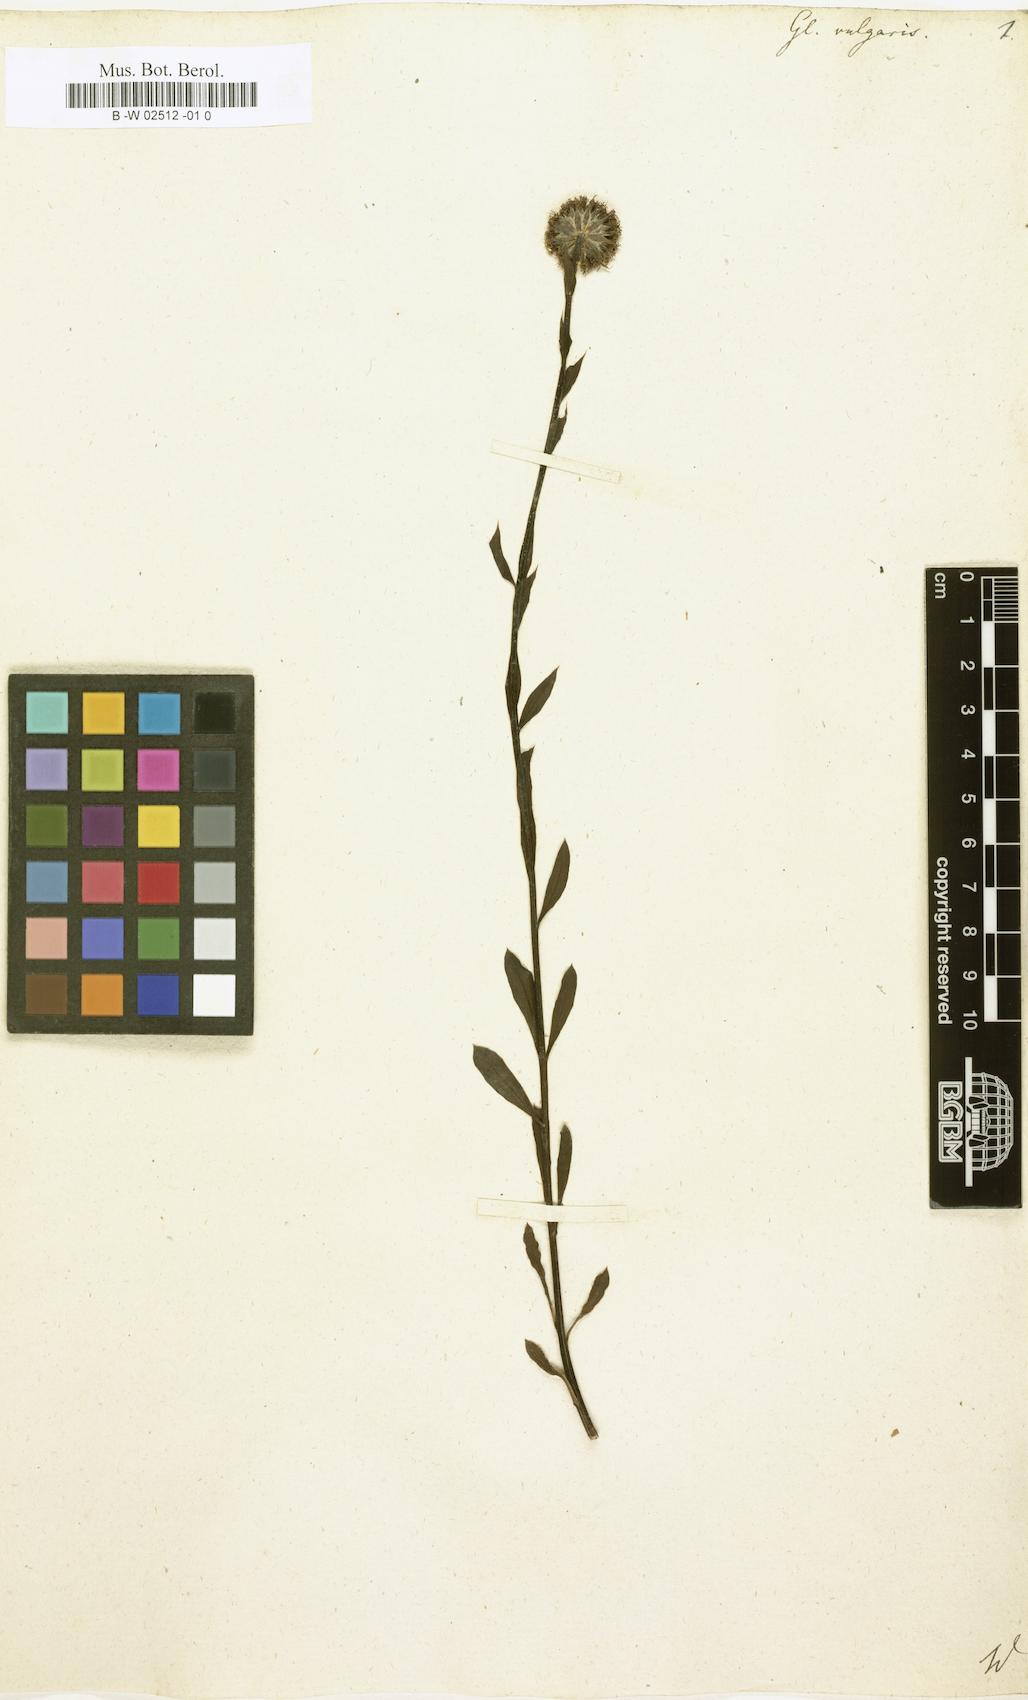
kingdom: Plantae
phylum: Tracheophyta
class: Magnoliopsida
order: Lamiales
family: Plantaginaceae
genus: Globularia
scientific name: Globularia vulgaris
